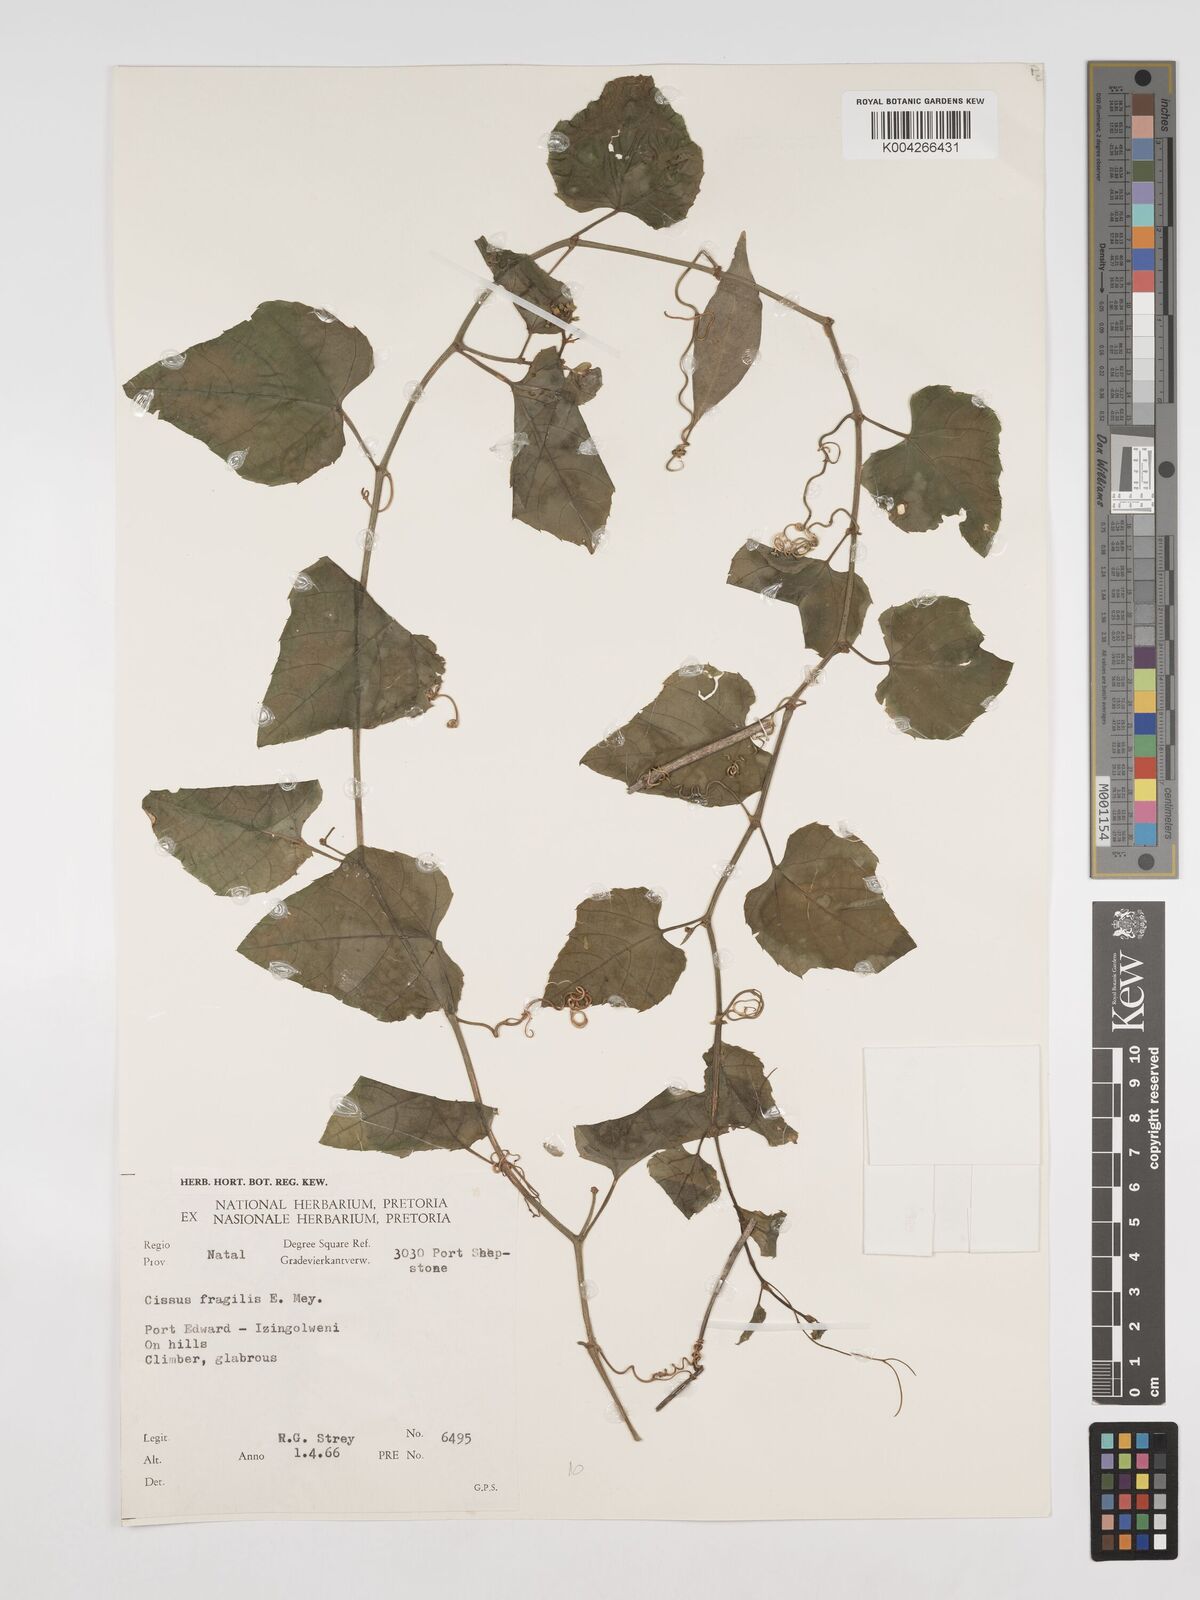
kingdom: Plantae
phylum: Tracheophyta
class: Magnoliopsida
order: Vitales
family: Vitaceae
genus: Cissus
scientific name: Cissus fragilis
